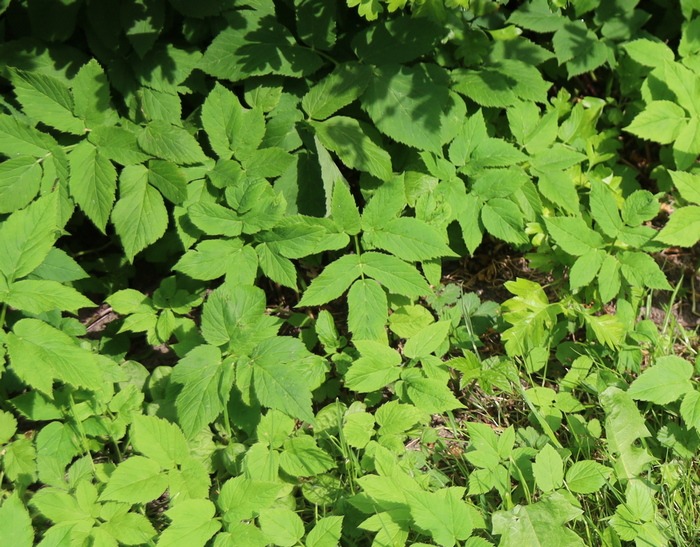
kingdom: Plantae
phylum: Tracheophyta
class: Magnoliopsida
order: Apiales
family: Apiaceae
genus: Aegopodium
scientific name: Aegopodium podagraria
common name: Skvalderkål
